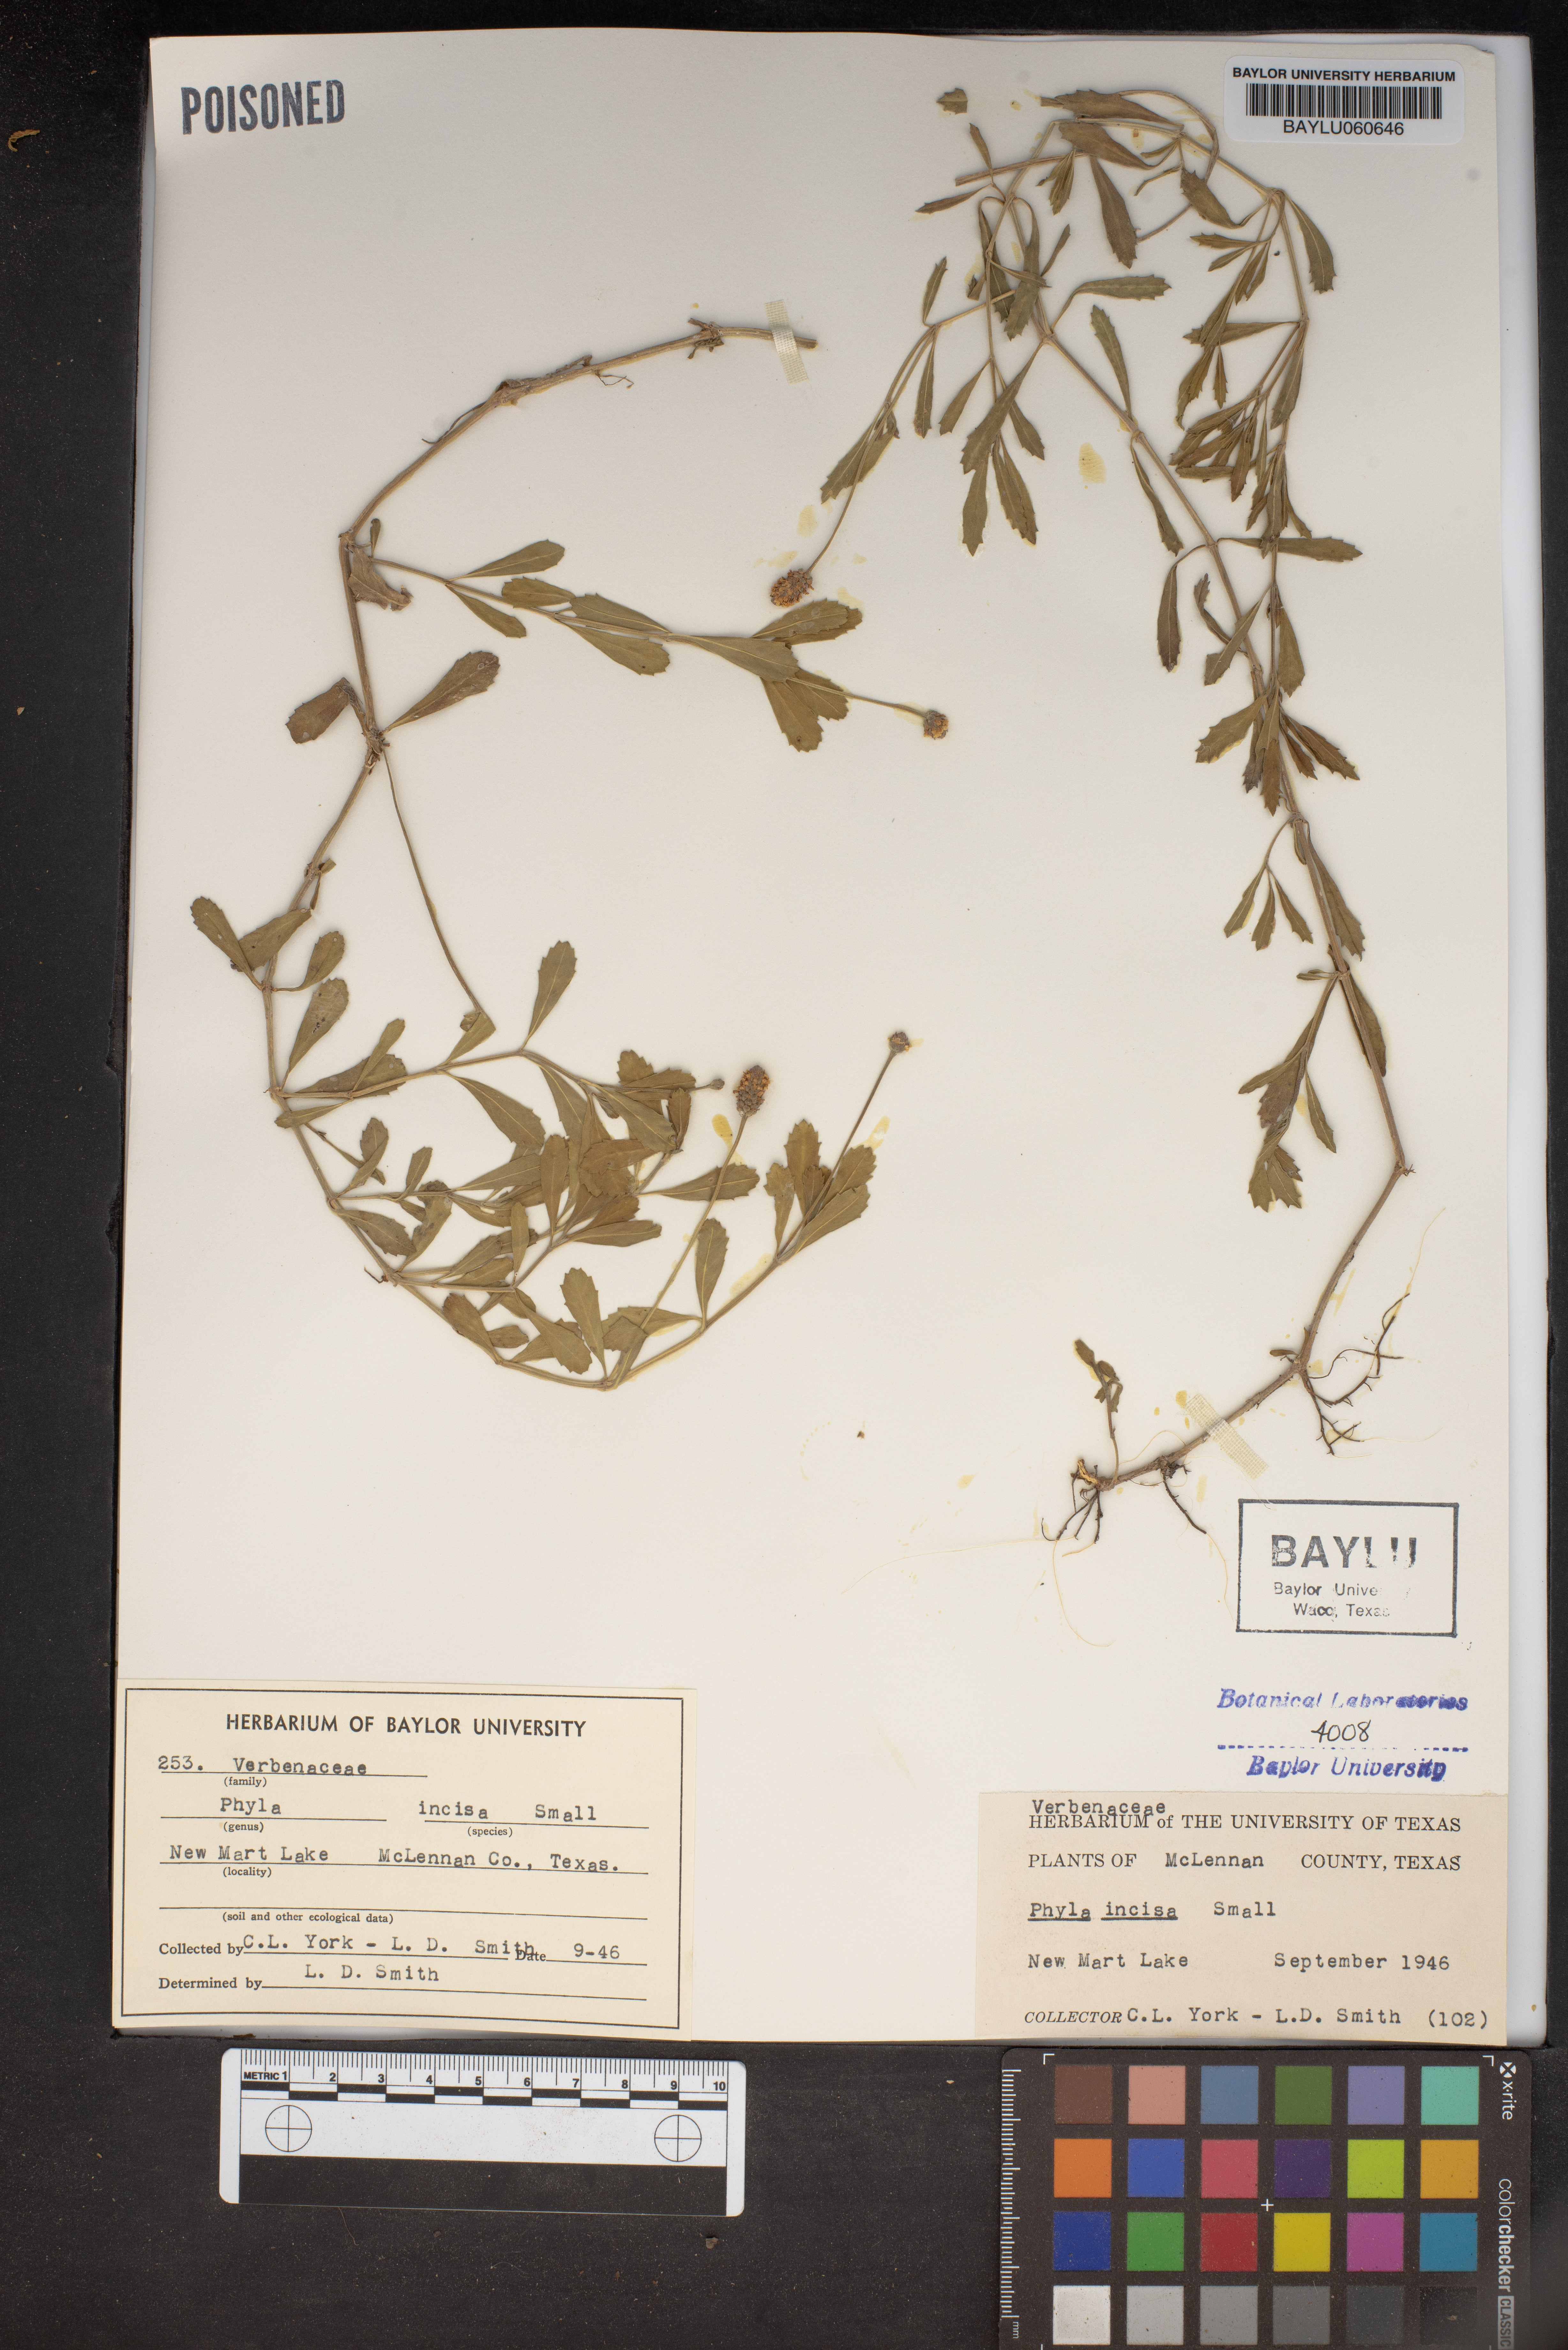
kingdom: Plantae
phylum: Tracheophyta
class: Magnoliopsida
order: Lamiales
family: Verbenaceae
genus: Phyla
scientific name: Phyla nodiflora
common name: Frogfruit
